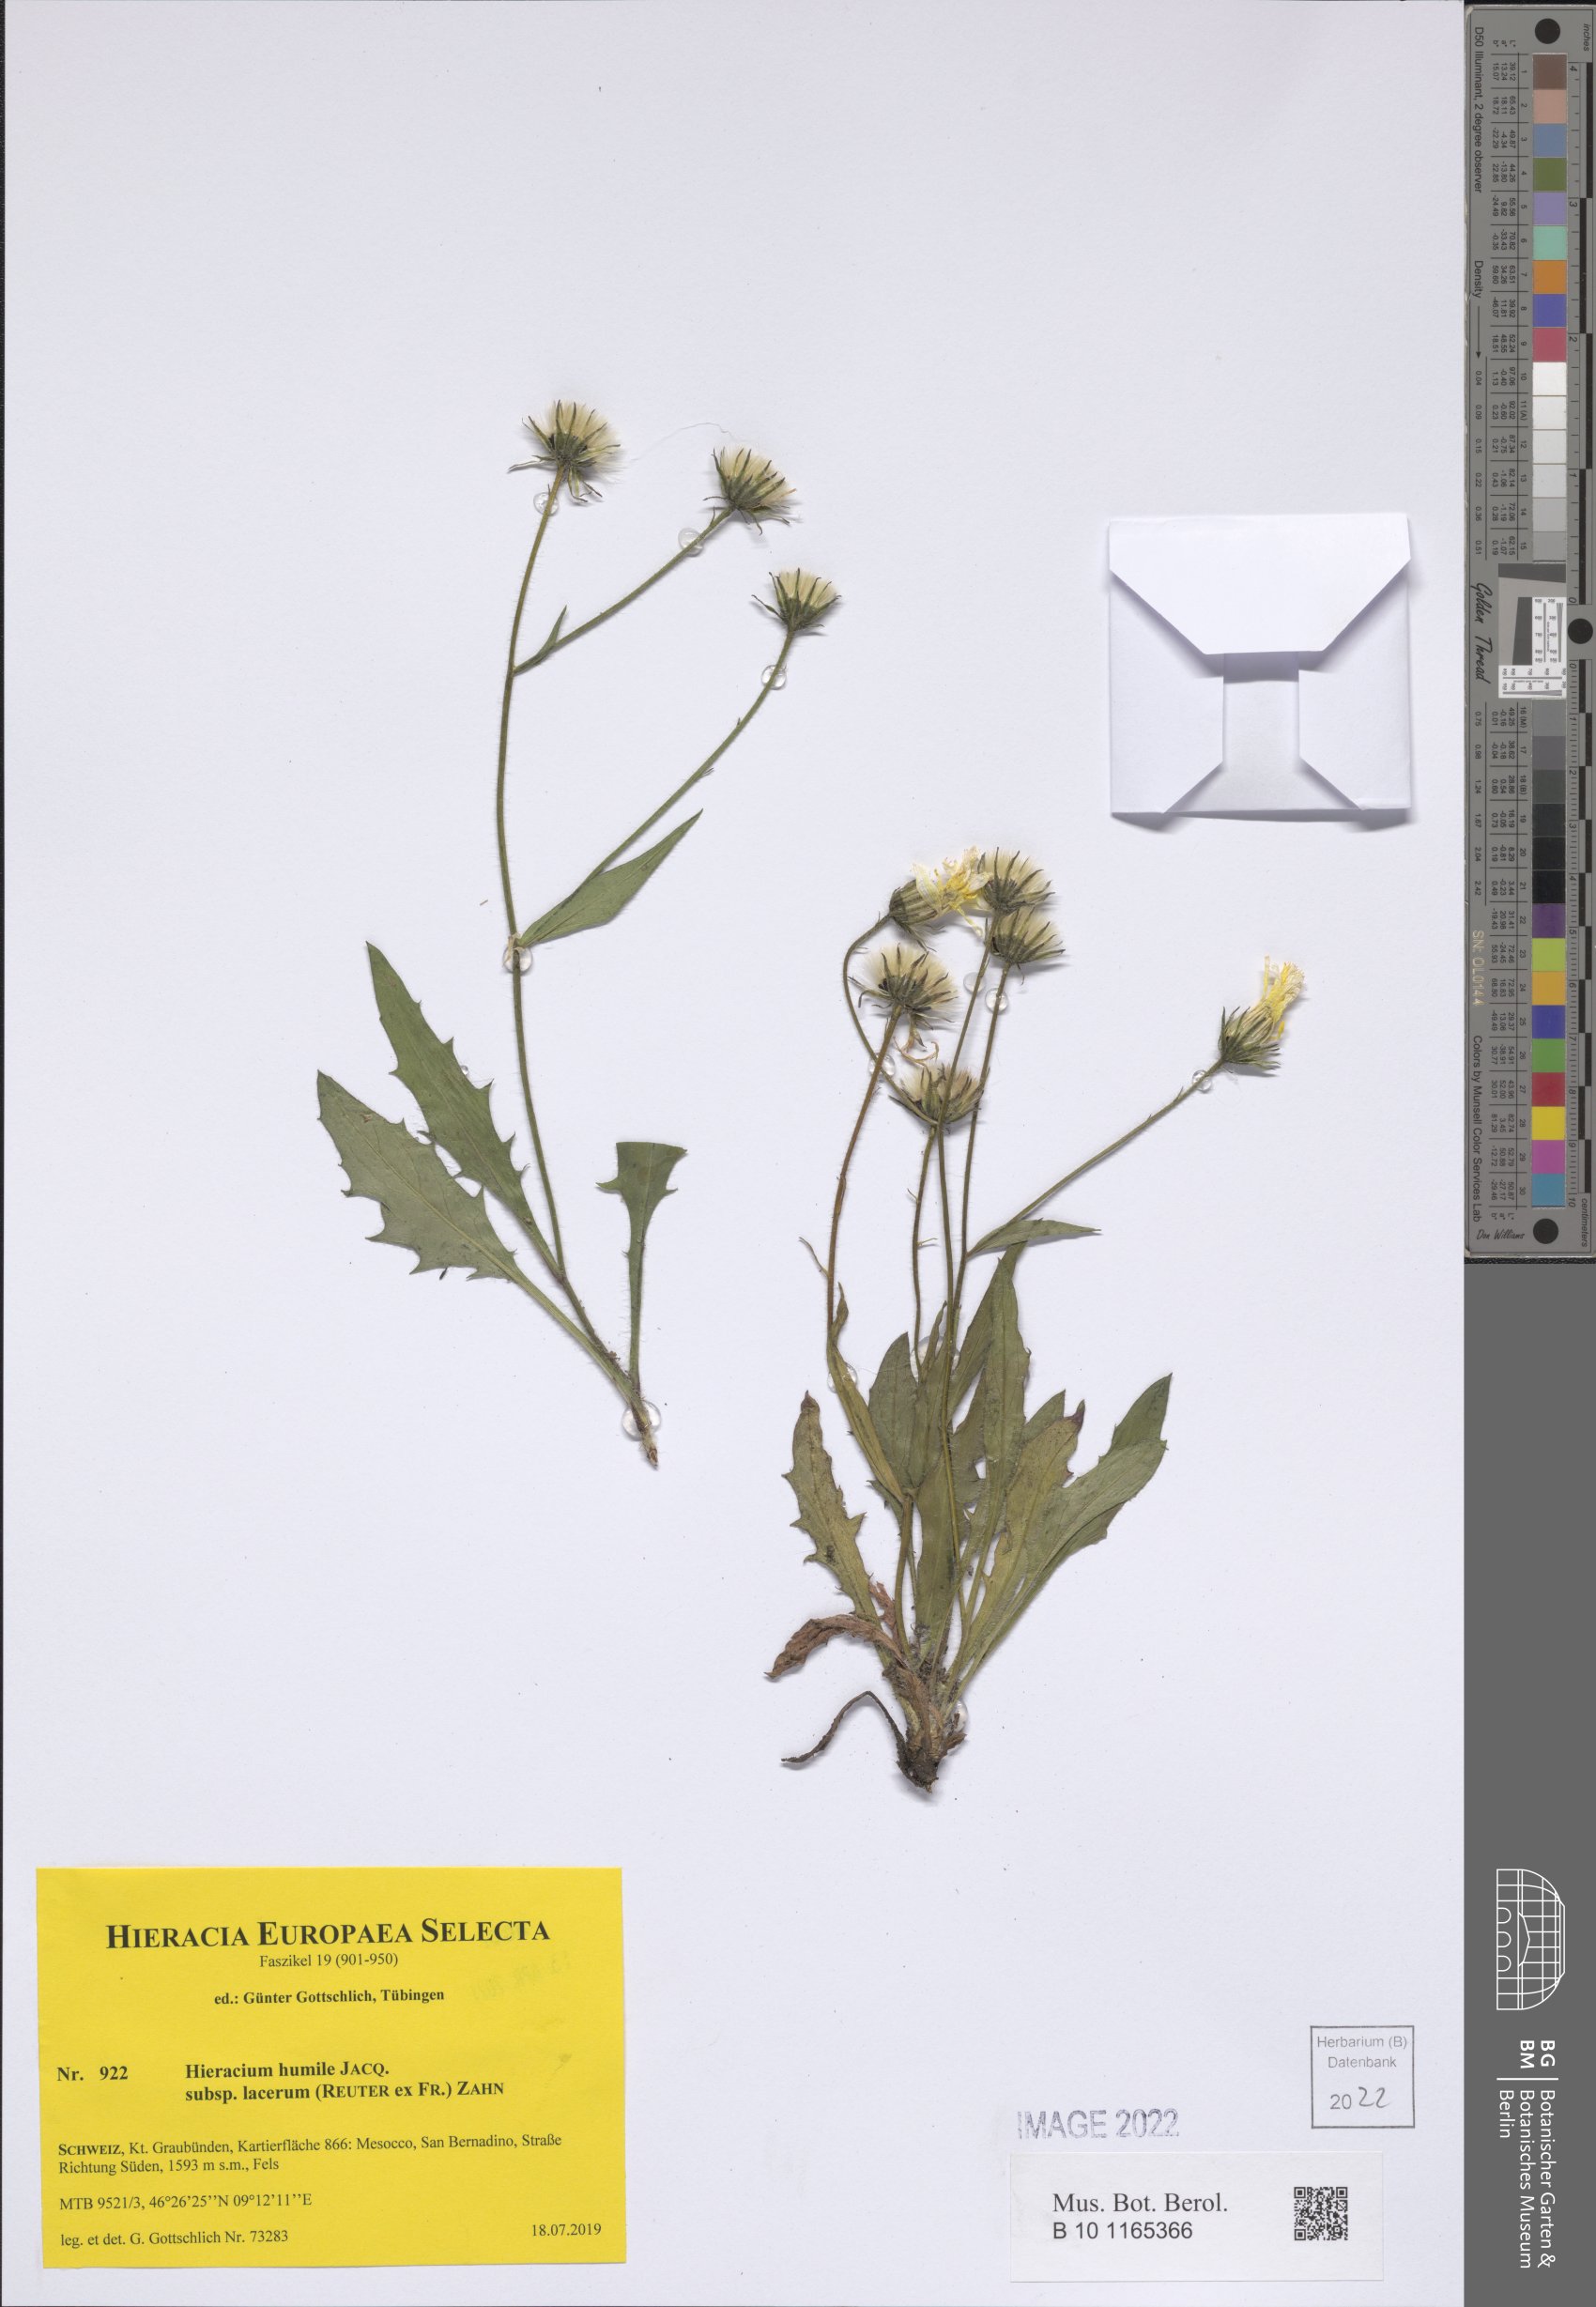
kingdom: Plantae
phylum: Tracheophyta
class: Magnoliopsida
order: Asterales
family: Asteraceae
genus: Hieracium
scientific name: Hieracium humile
